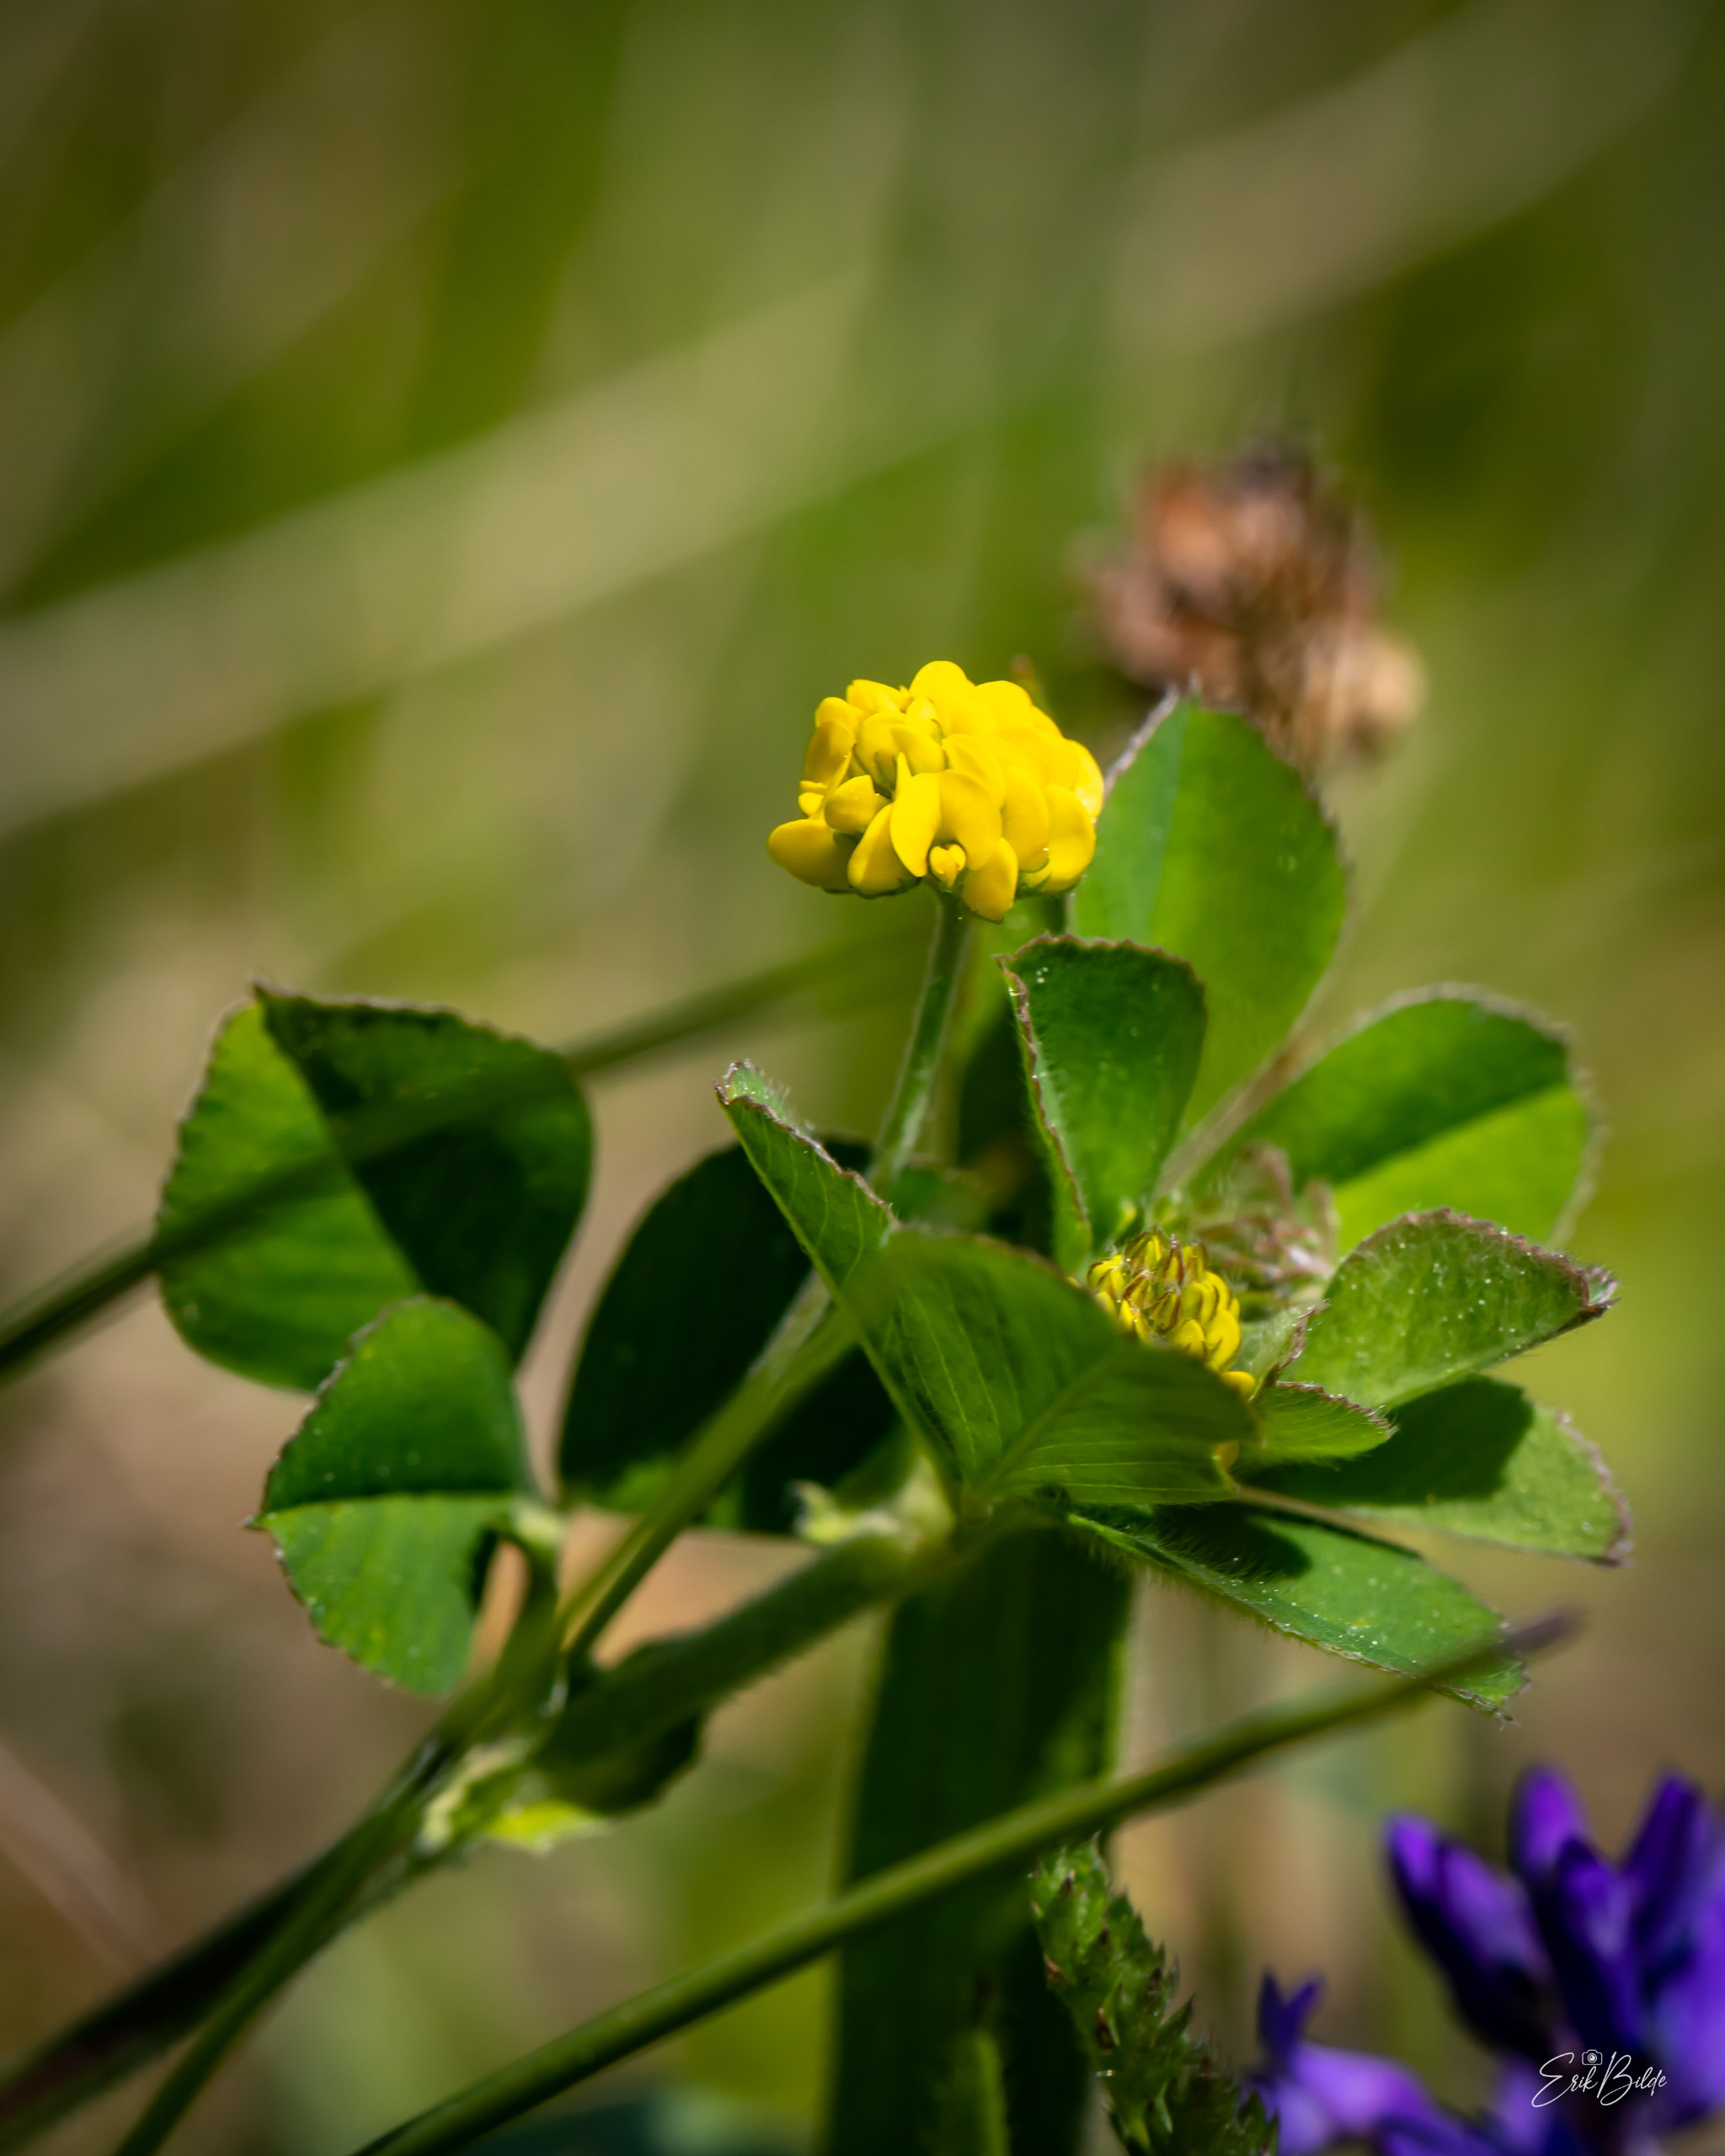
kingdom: Plantae
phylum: Tracheophyta
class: Magnoliopsida
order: Fabales
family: Fabaceae
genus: Medicago
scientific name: Medicago lupulina
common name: Humle-sneglebælg
